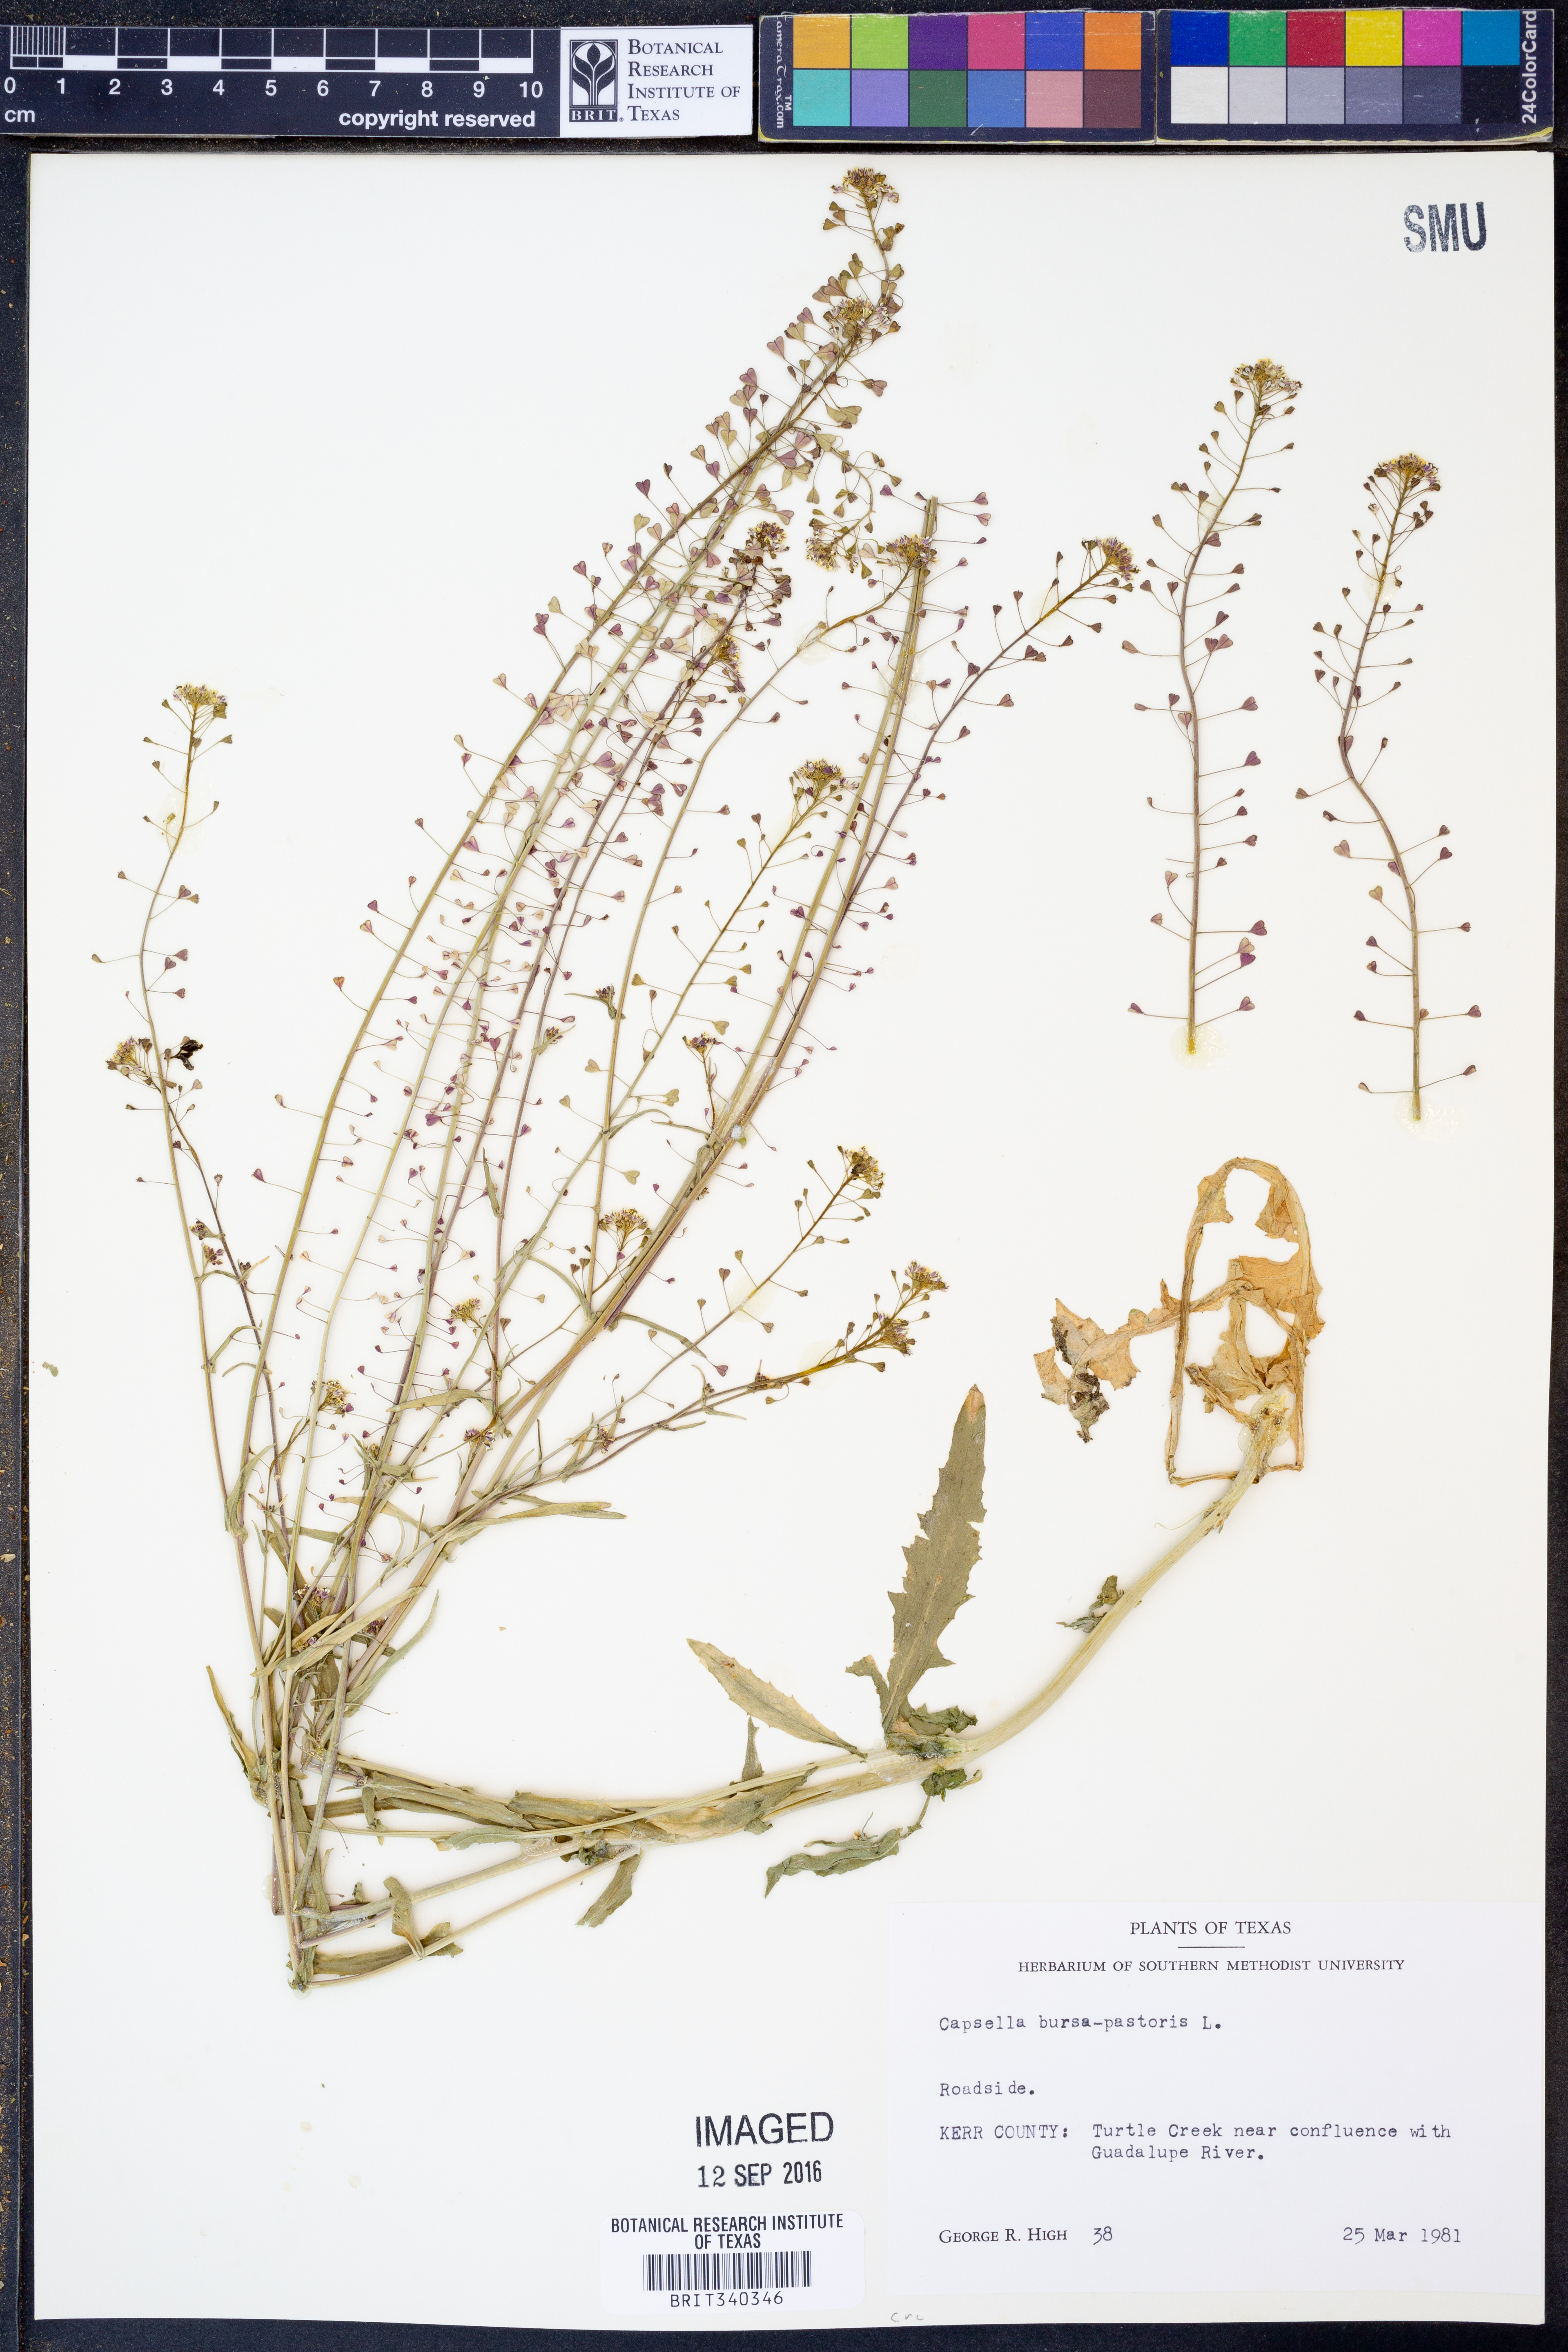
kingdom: Plantae
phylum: Tracheophyta
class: Magnoliopsida
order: Brassicales
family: Brassicaceae
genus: Capsella
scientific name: Capsella bursa-pastoris
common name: Shepherd's purse
